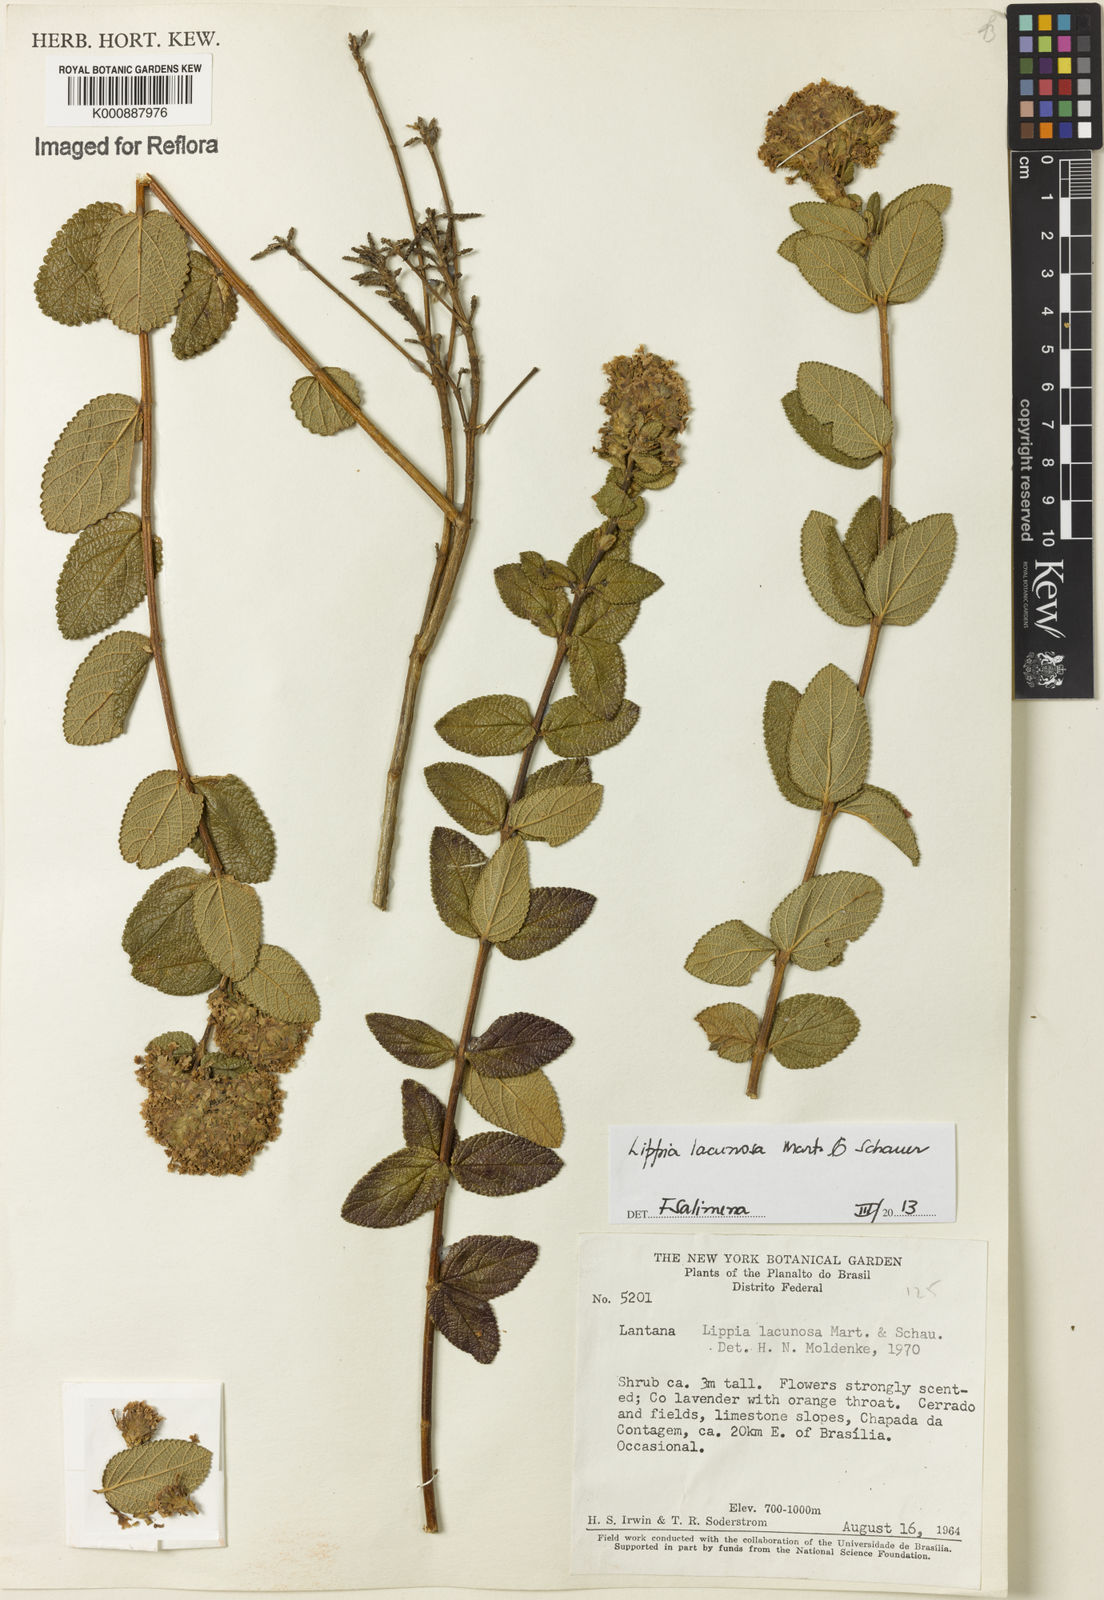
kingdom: Plantae
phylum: Tracheophyta
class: Magnoliopsida
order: Lamiales
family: Verbenaceae
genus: Lippia
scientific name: Lippia lacunosa
